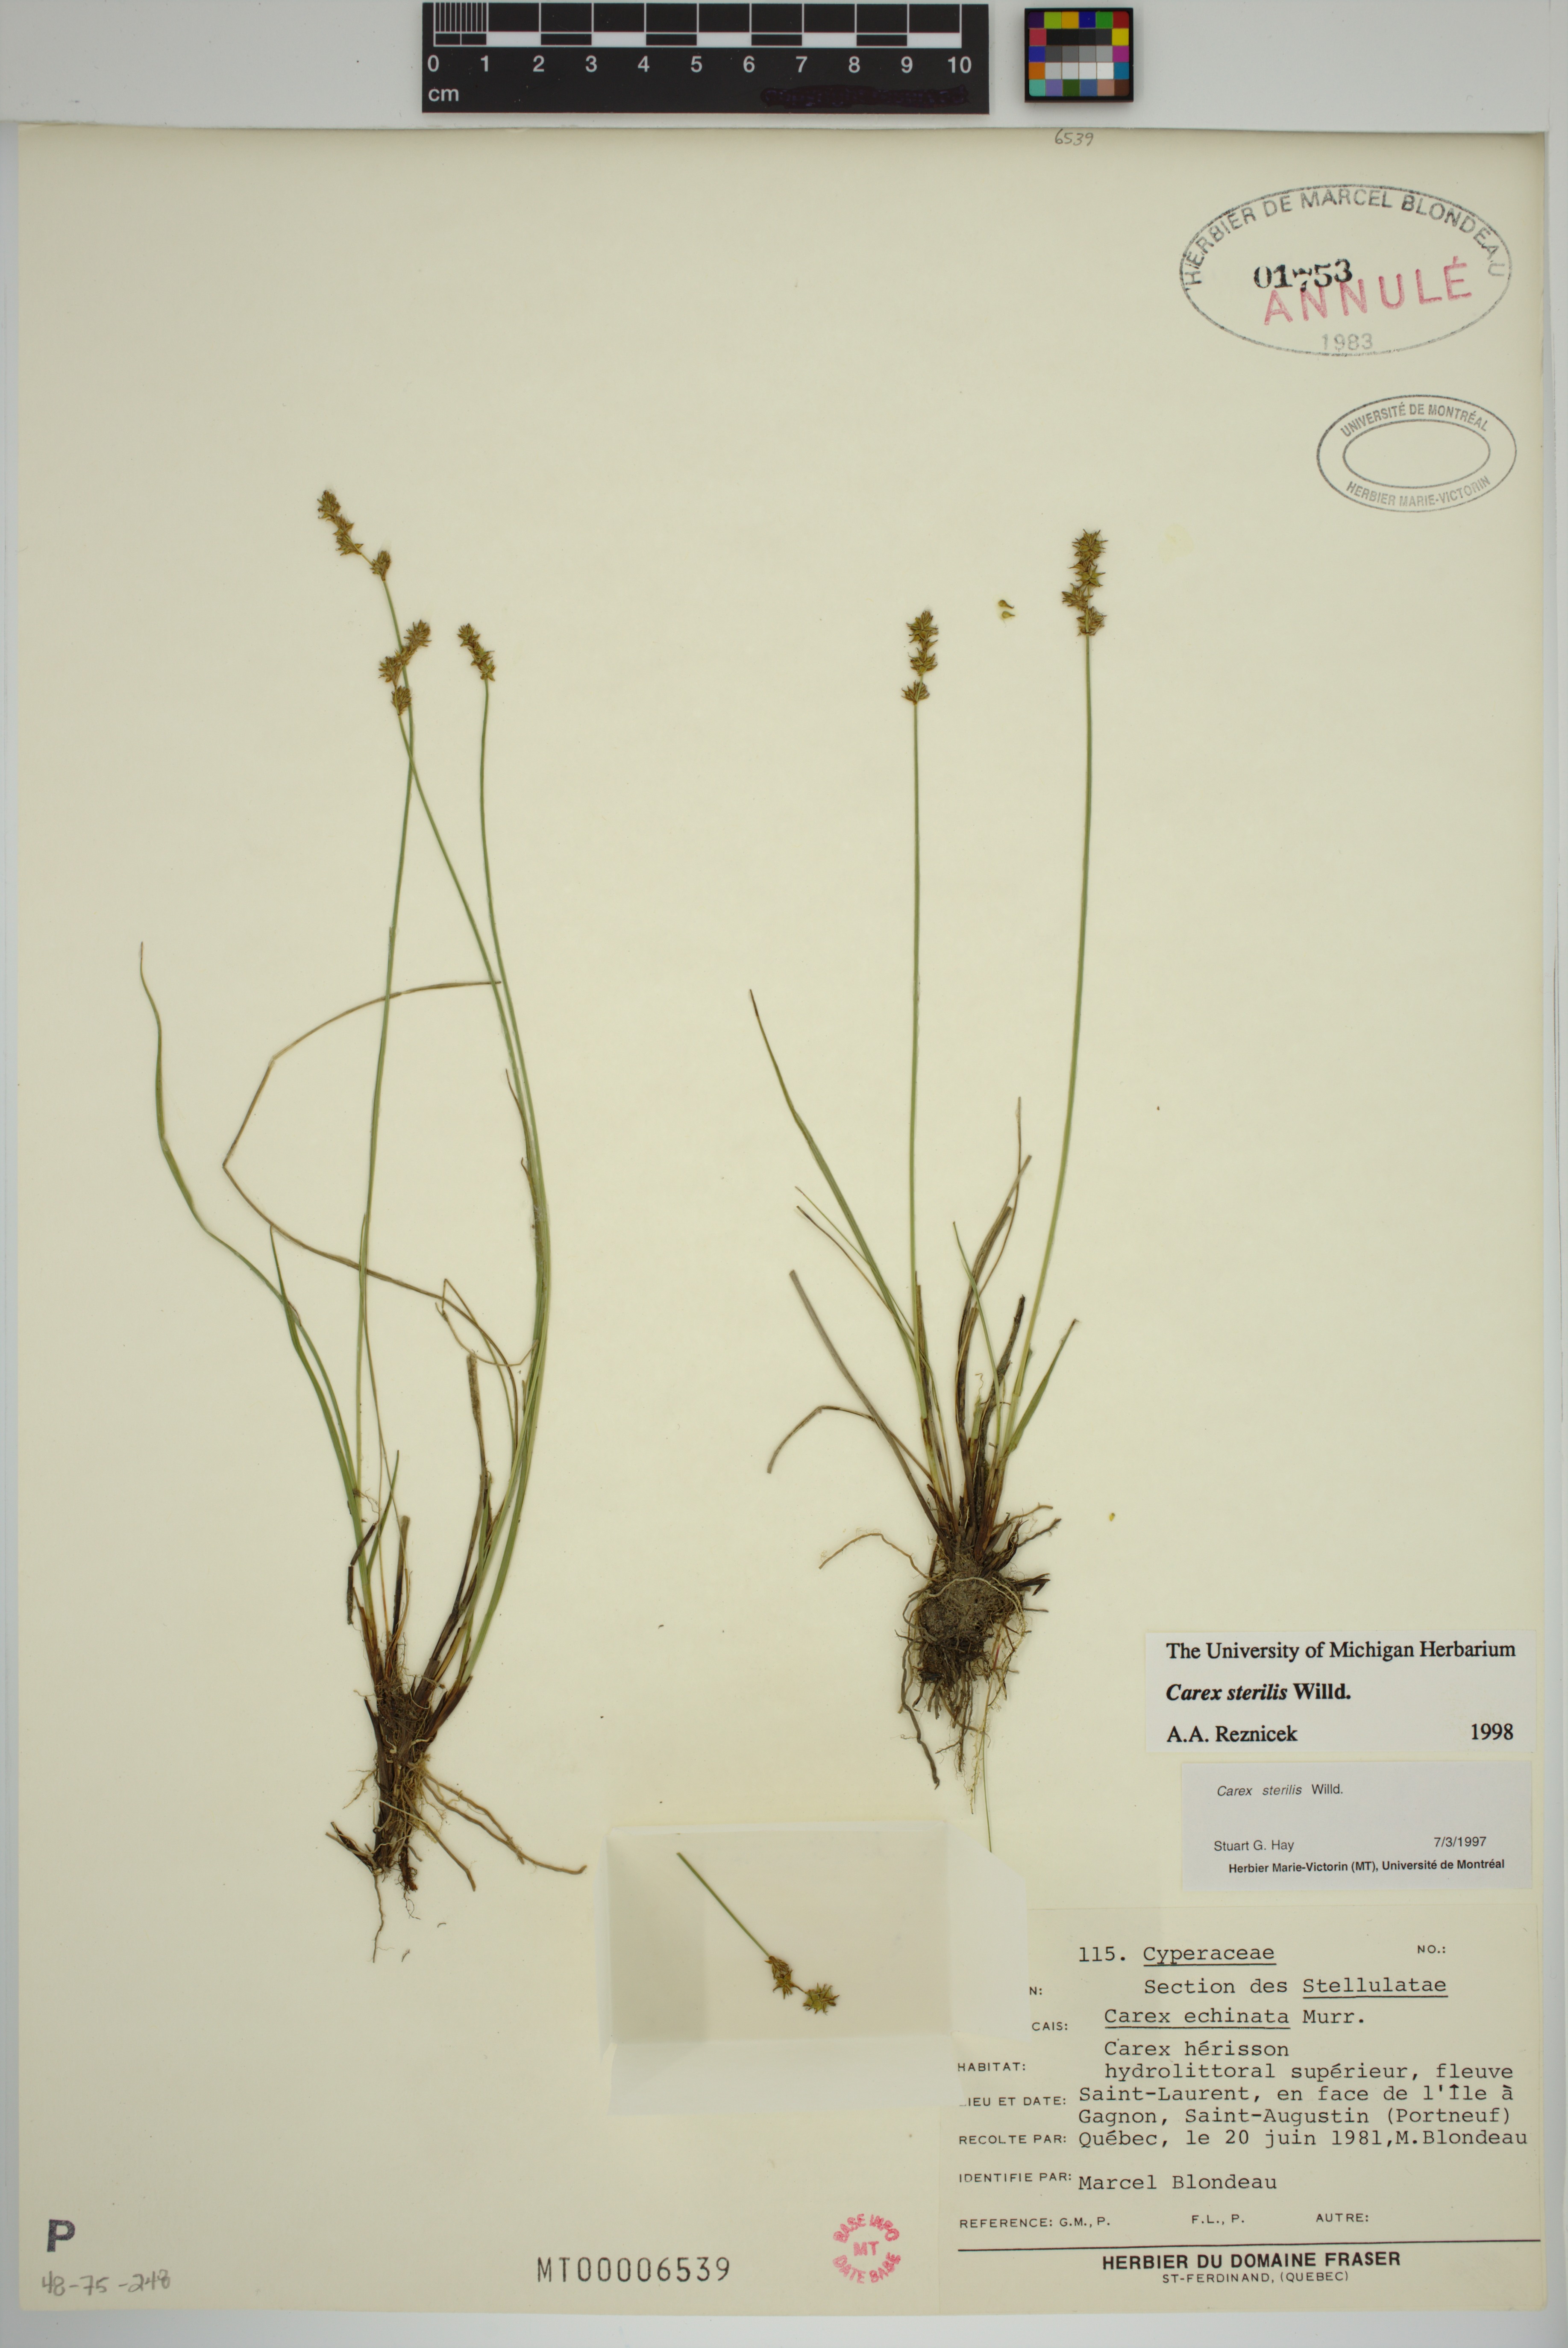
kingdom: Plantae
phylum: Tracheophyta
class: Liliopsida
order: Poales
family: Cyperaceae
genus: Carex
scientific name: Carex sterilis
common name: Dioecious sedge
